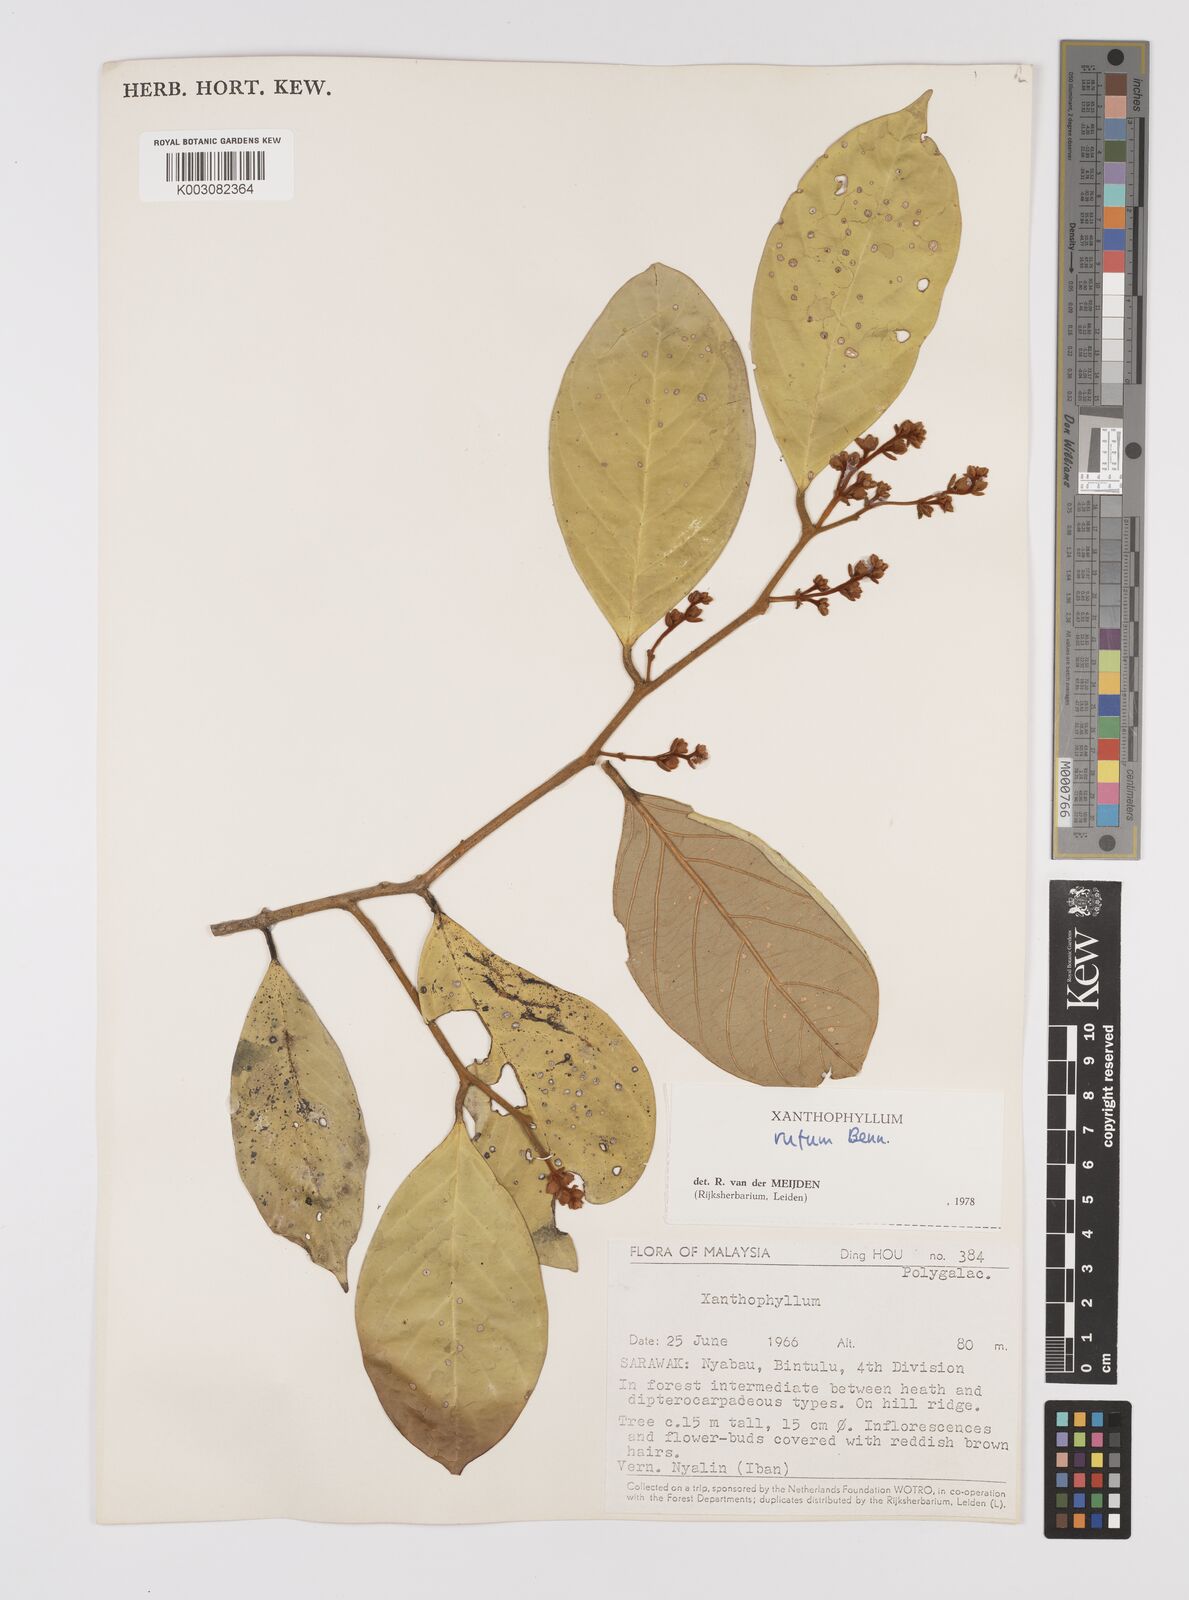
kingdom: Plantae
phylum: Tracheophyta
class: Magnoliopsida
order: Fabales
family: Polygalaceae
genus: Xanthophyllum
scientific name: Xanthophyllum rufum
